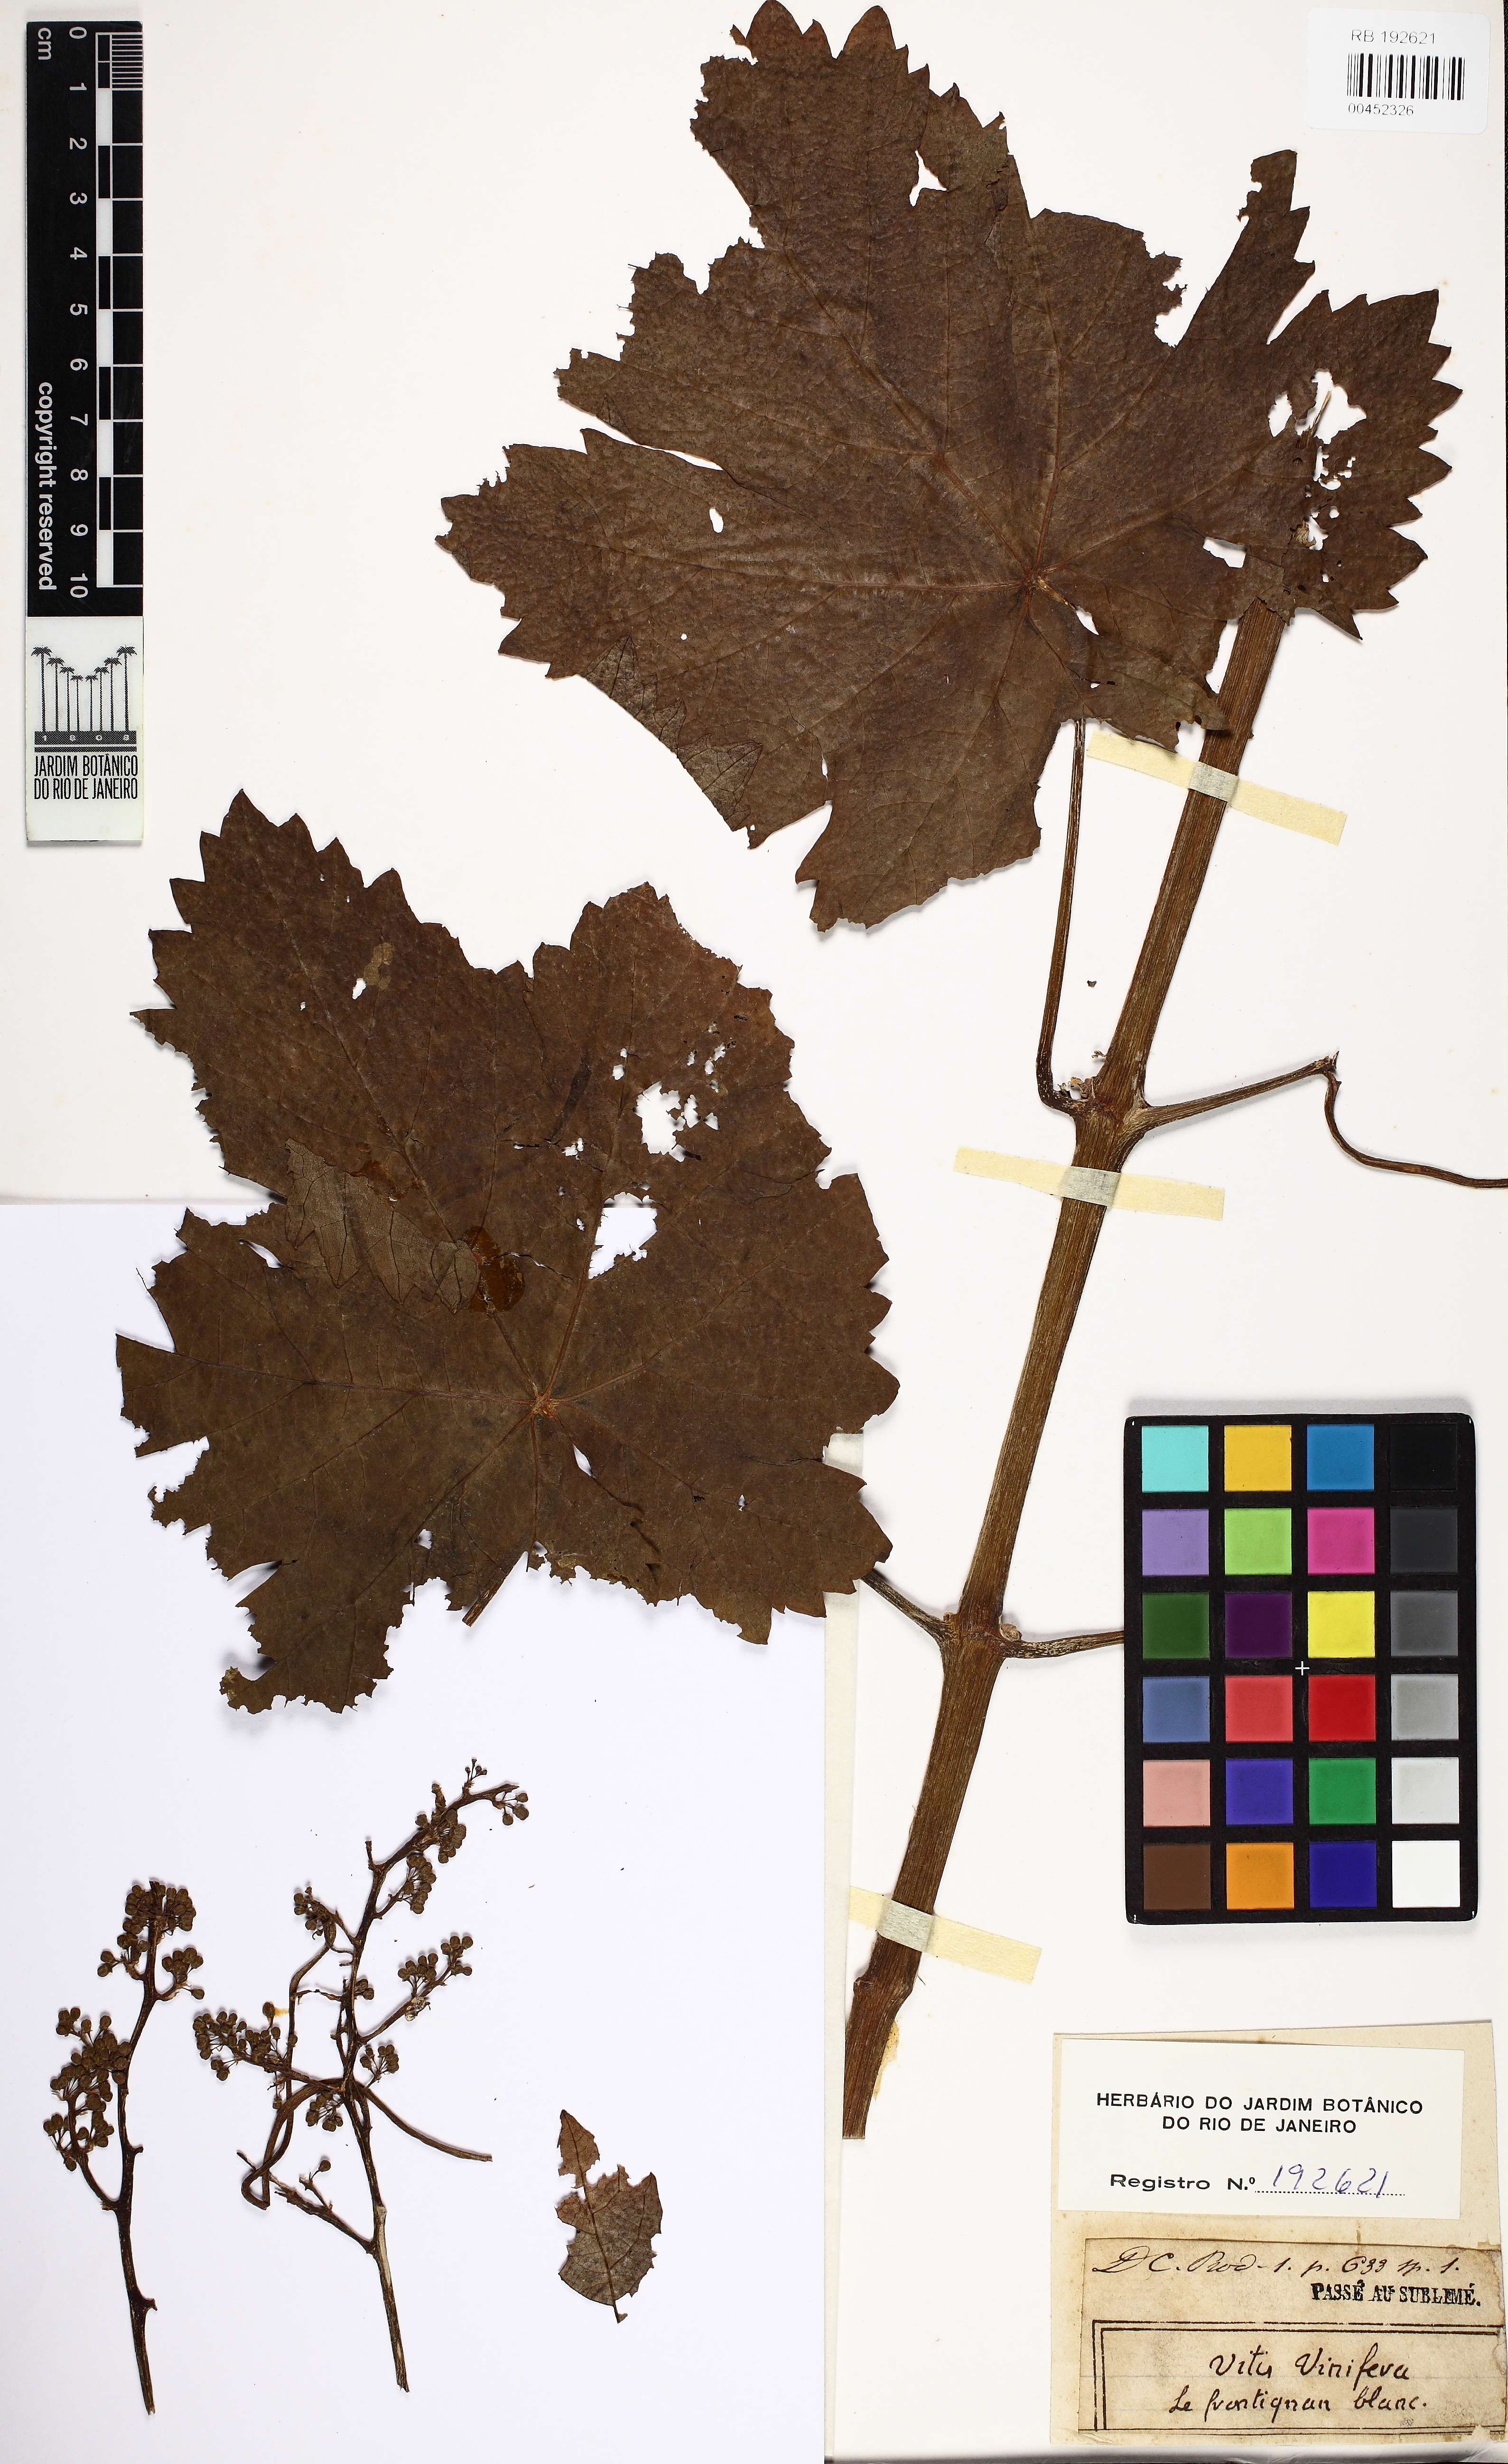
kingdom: Plantae
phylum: Tracheophyta
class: Magnoliopsida
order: Vitales
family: Vitaceae
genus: Vitis
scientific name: Vitis vinifera
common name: Grape-vine
